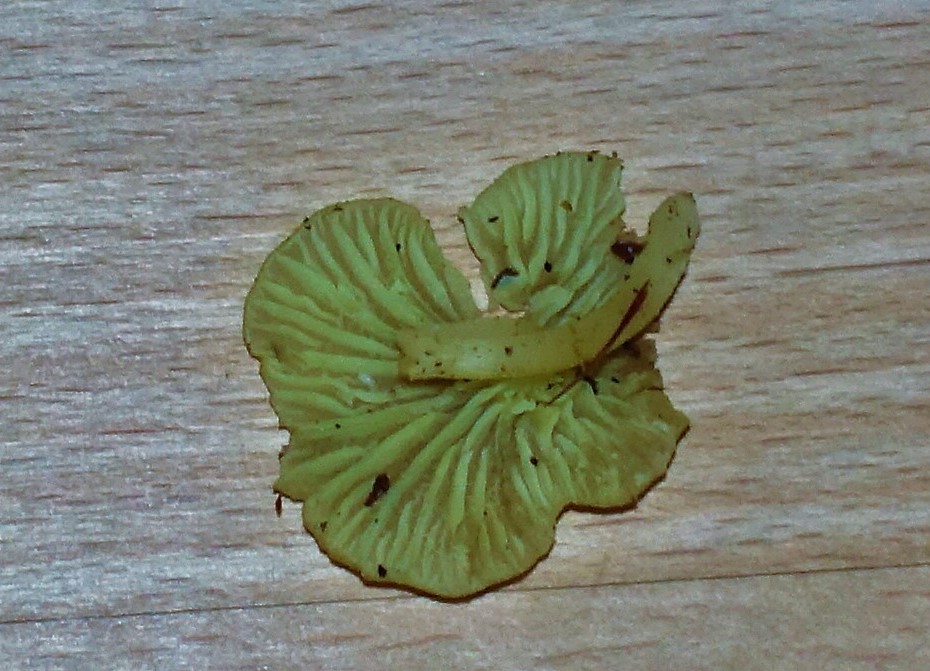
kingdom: Fungi
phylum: Basidiomycota
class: Agaricomycetes
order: Agaricales
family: Hygrophoraceae
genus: Chrysomphalina
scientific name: Chrysomphalina grossula
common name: stød-gyldenblad
